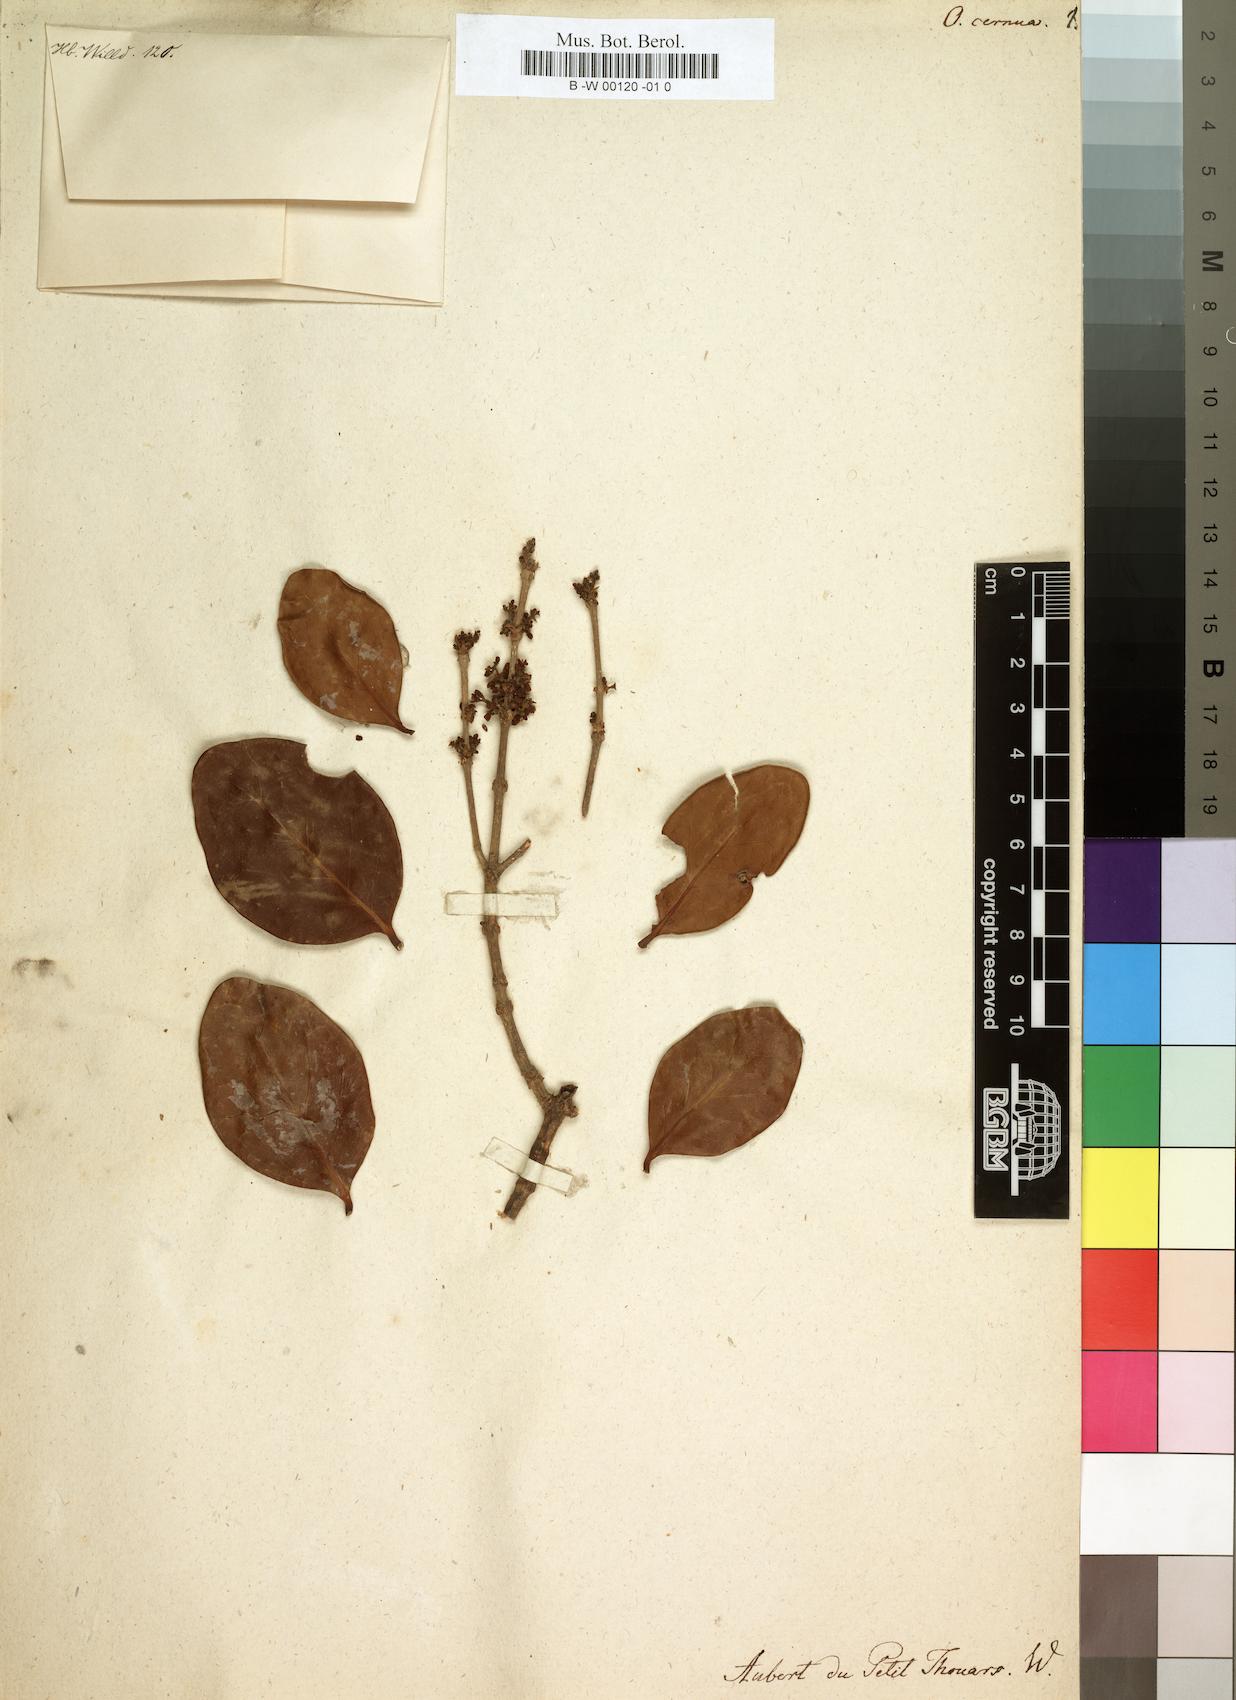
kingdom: Plantae
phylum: Tracheophyta
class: Magnoliopsida
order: Lamiales
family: Oleaceae
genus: Noronhia
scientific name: Noronhia obtusifolia
